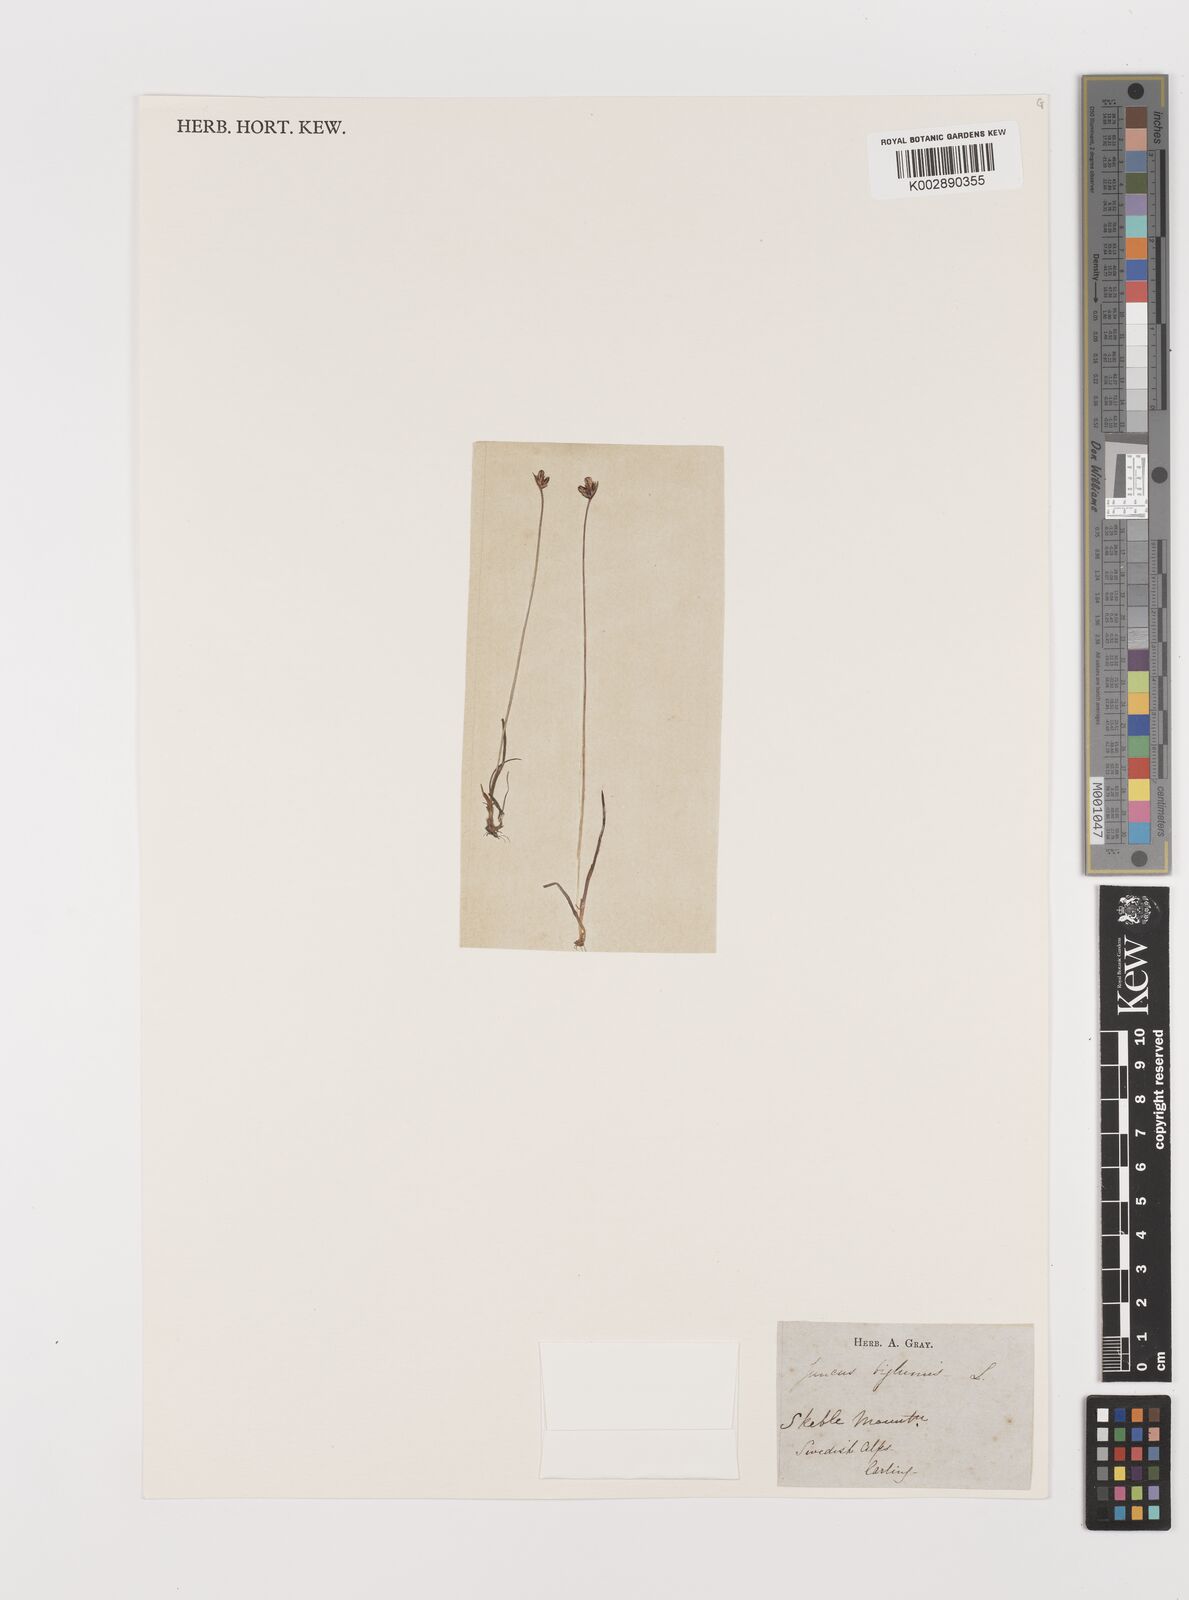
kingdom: Plantae
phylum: Tracheophyta
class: Liliopsida
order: Poales
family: Juncaceae
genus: Juncus
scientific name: Juncus biglumis
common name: Two-flowered rush
